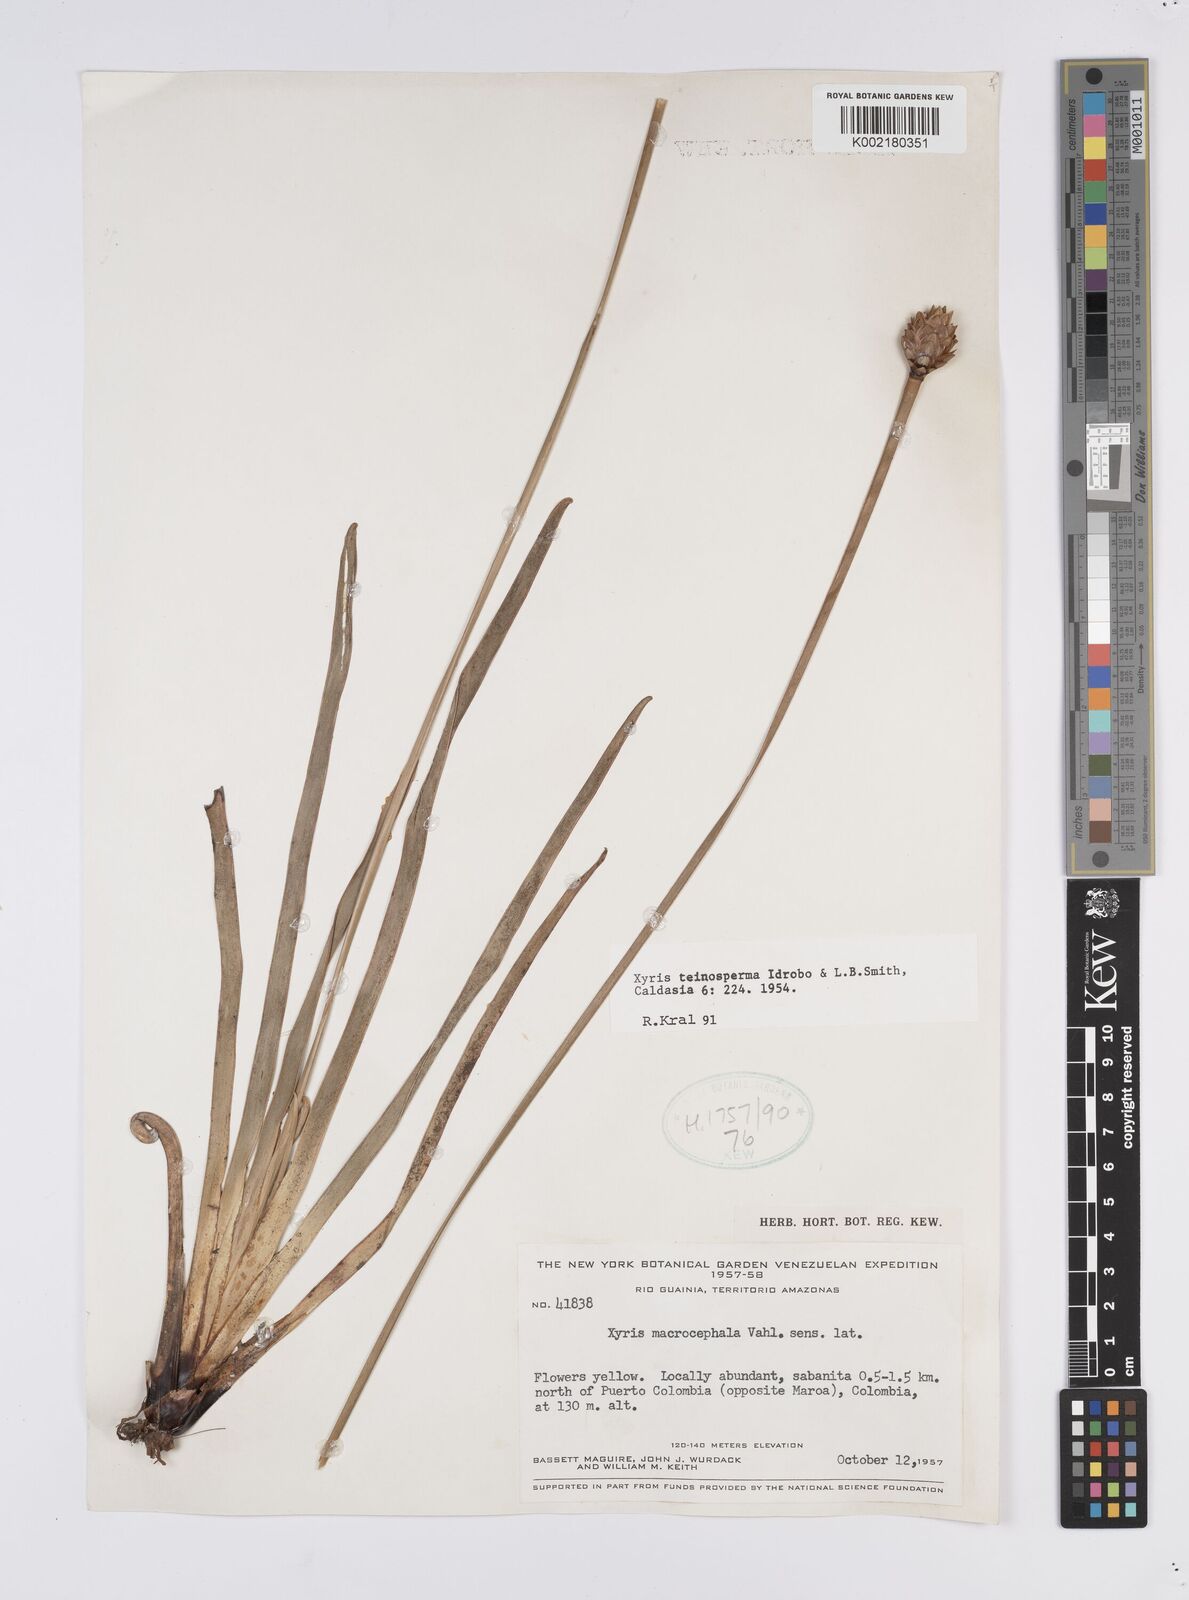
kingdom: Plantae
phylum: Tracheophyta
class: Liliopsida
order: Poales
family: Xyridaceae
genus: Xyris
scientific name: Xyris teinosperma
